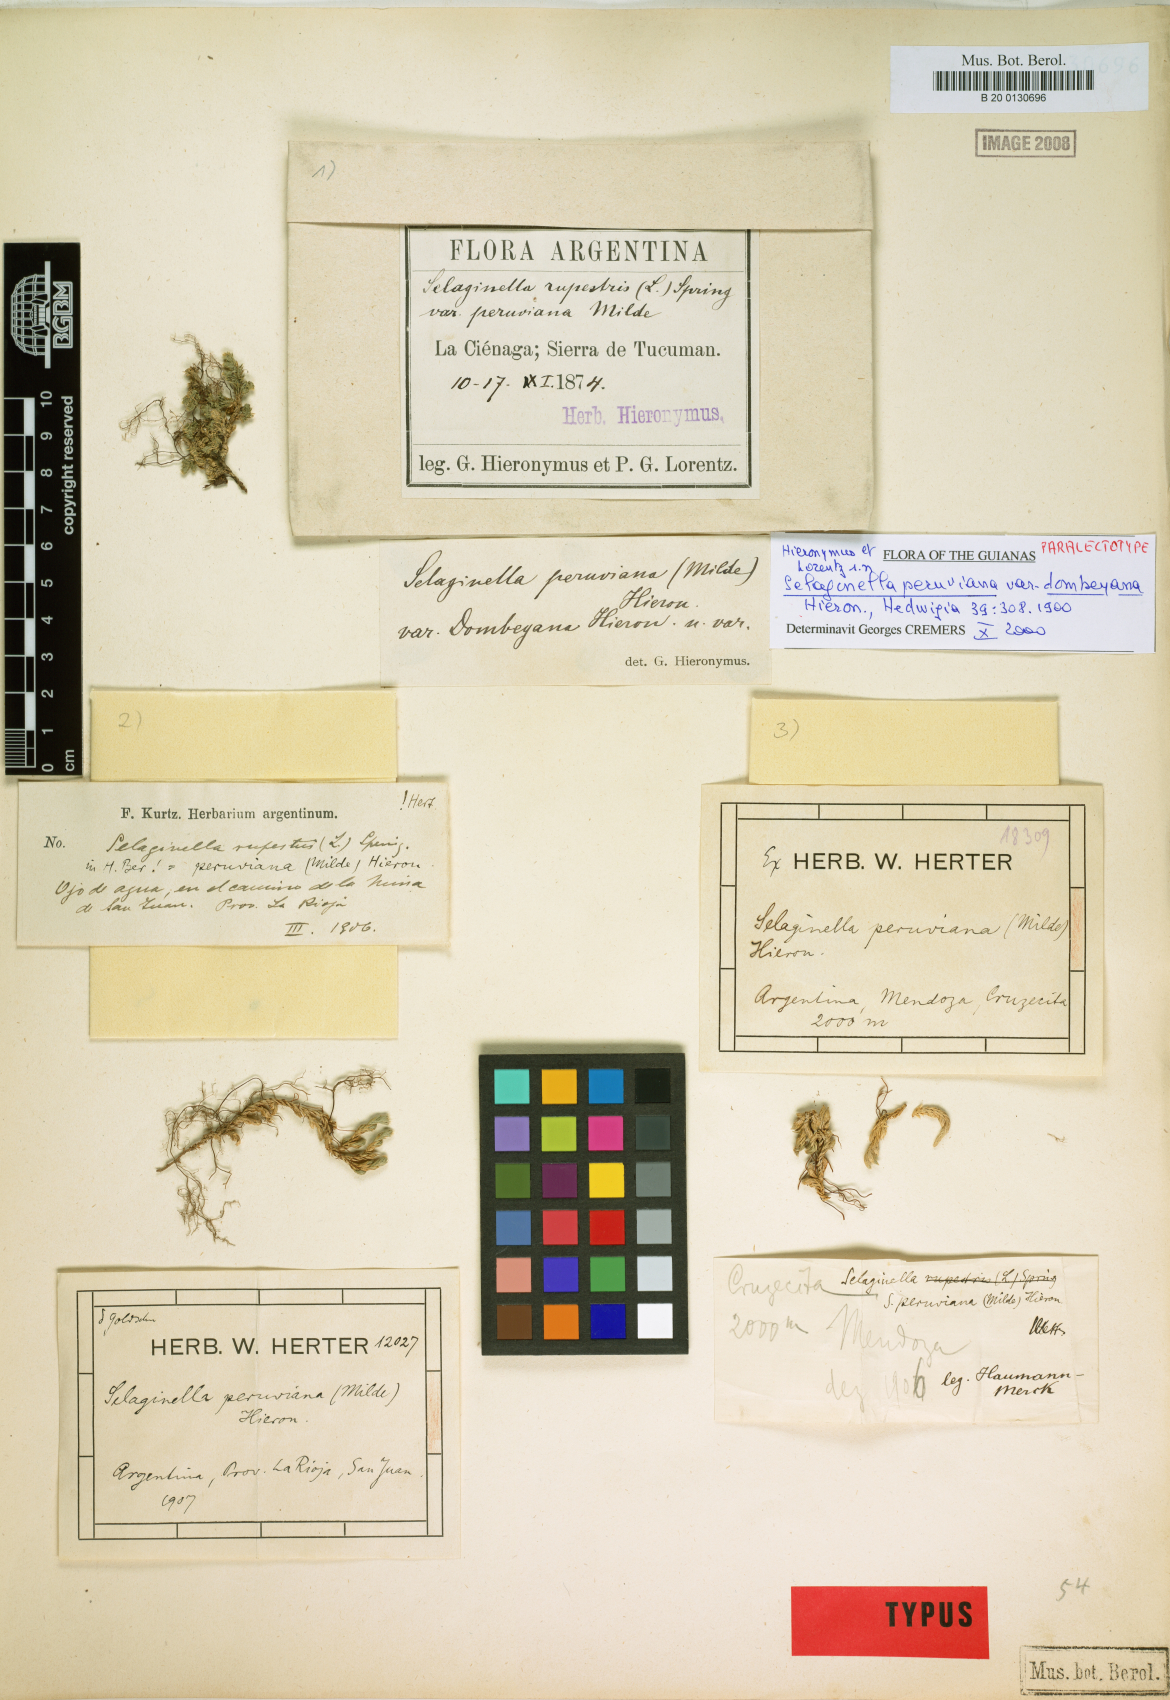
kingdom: Plantae
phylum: Tracheophyta
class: Lycopodiopsida
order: Selaginellales
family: Selaginellaceae
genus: Selaginella
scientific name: Selaginella peruviana
